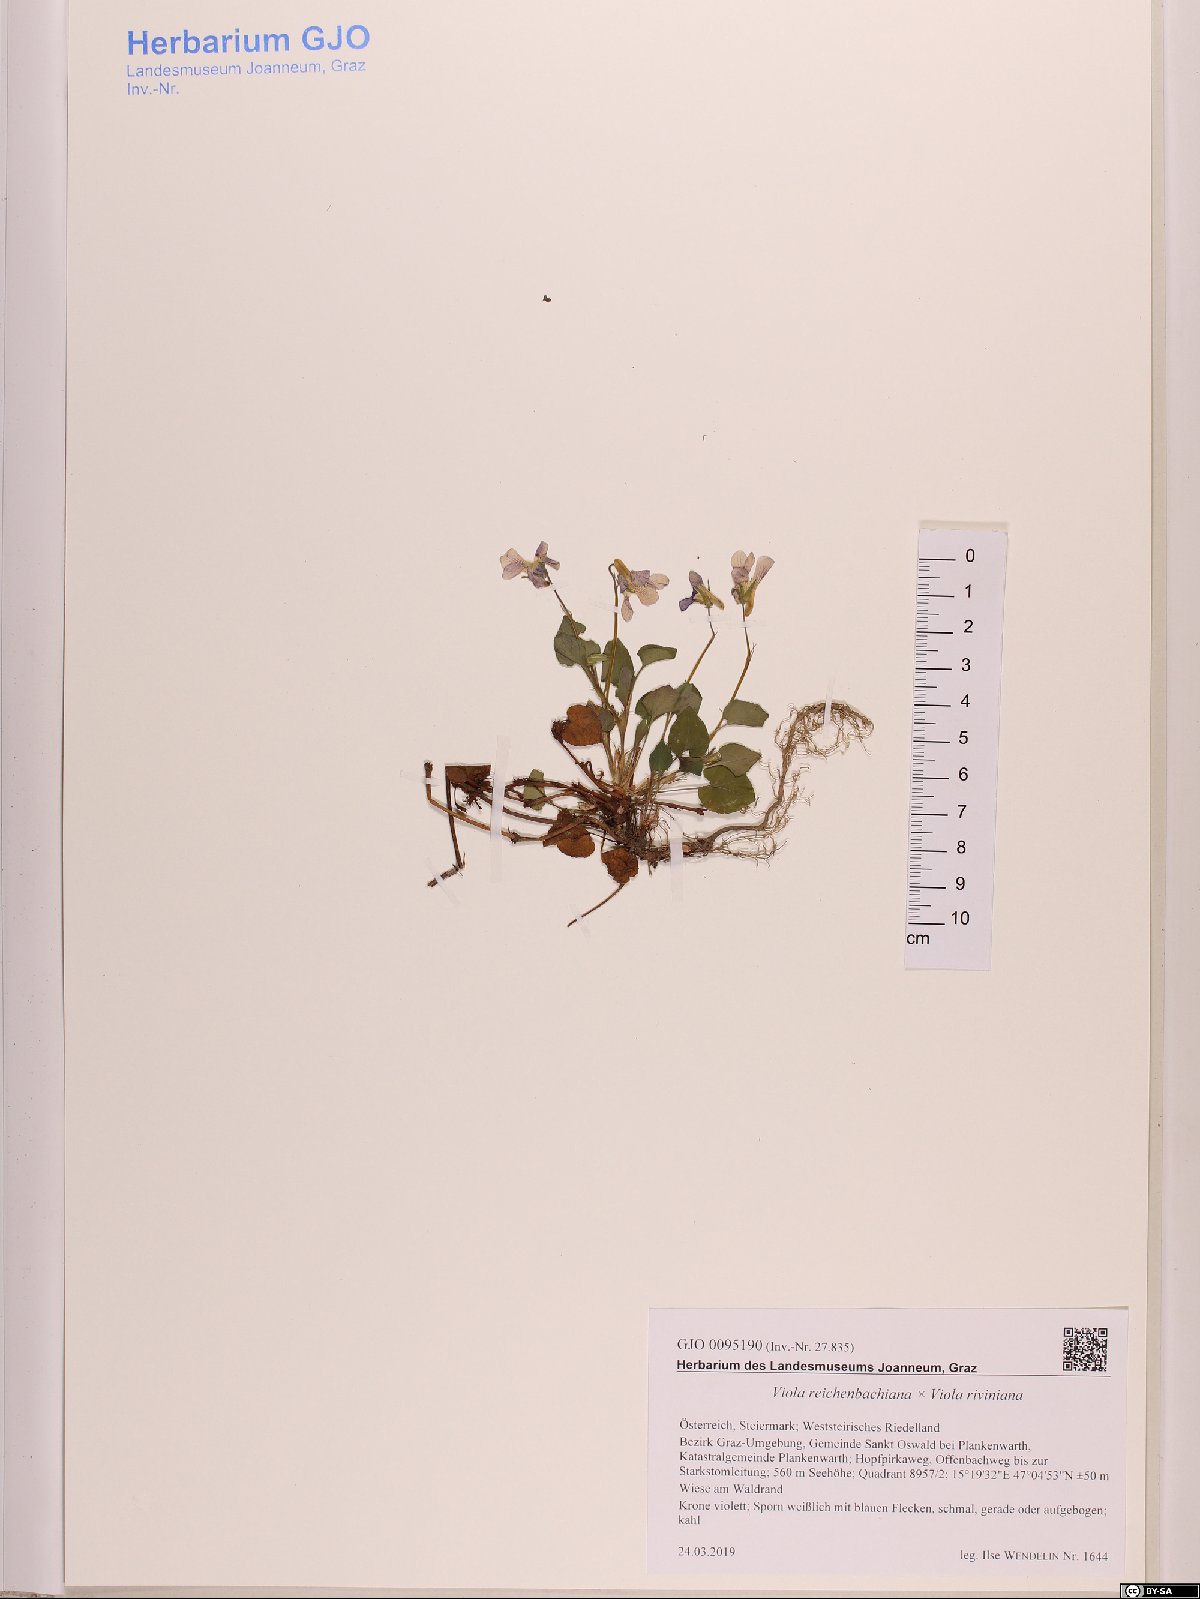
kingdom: Plantae
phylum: Tracheophyta
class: Magnoliopsida
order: Malpighiales
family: Violaceae
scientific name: Violaceae
